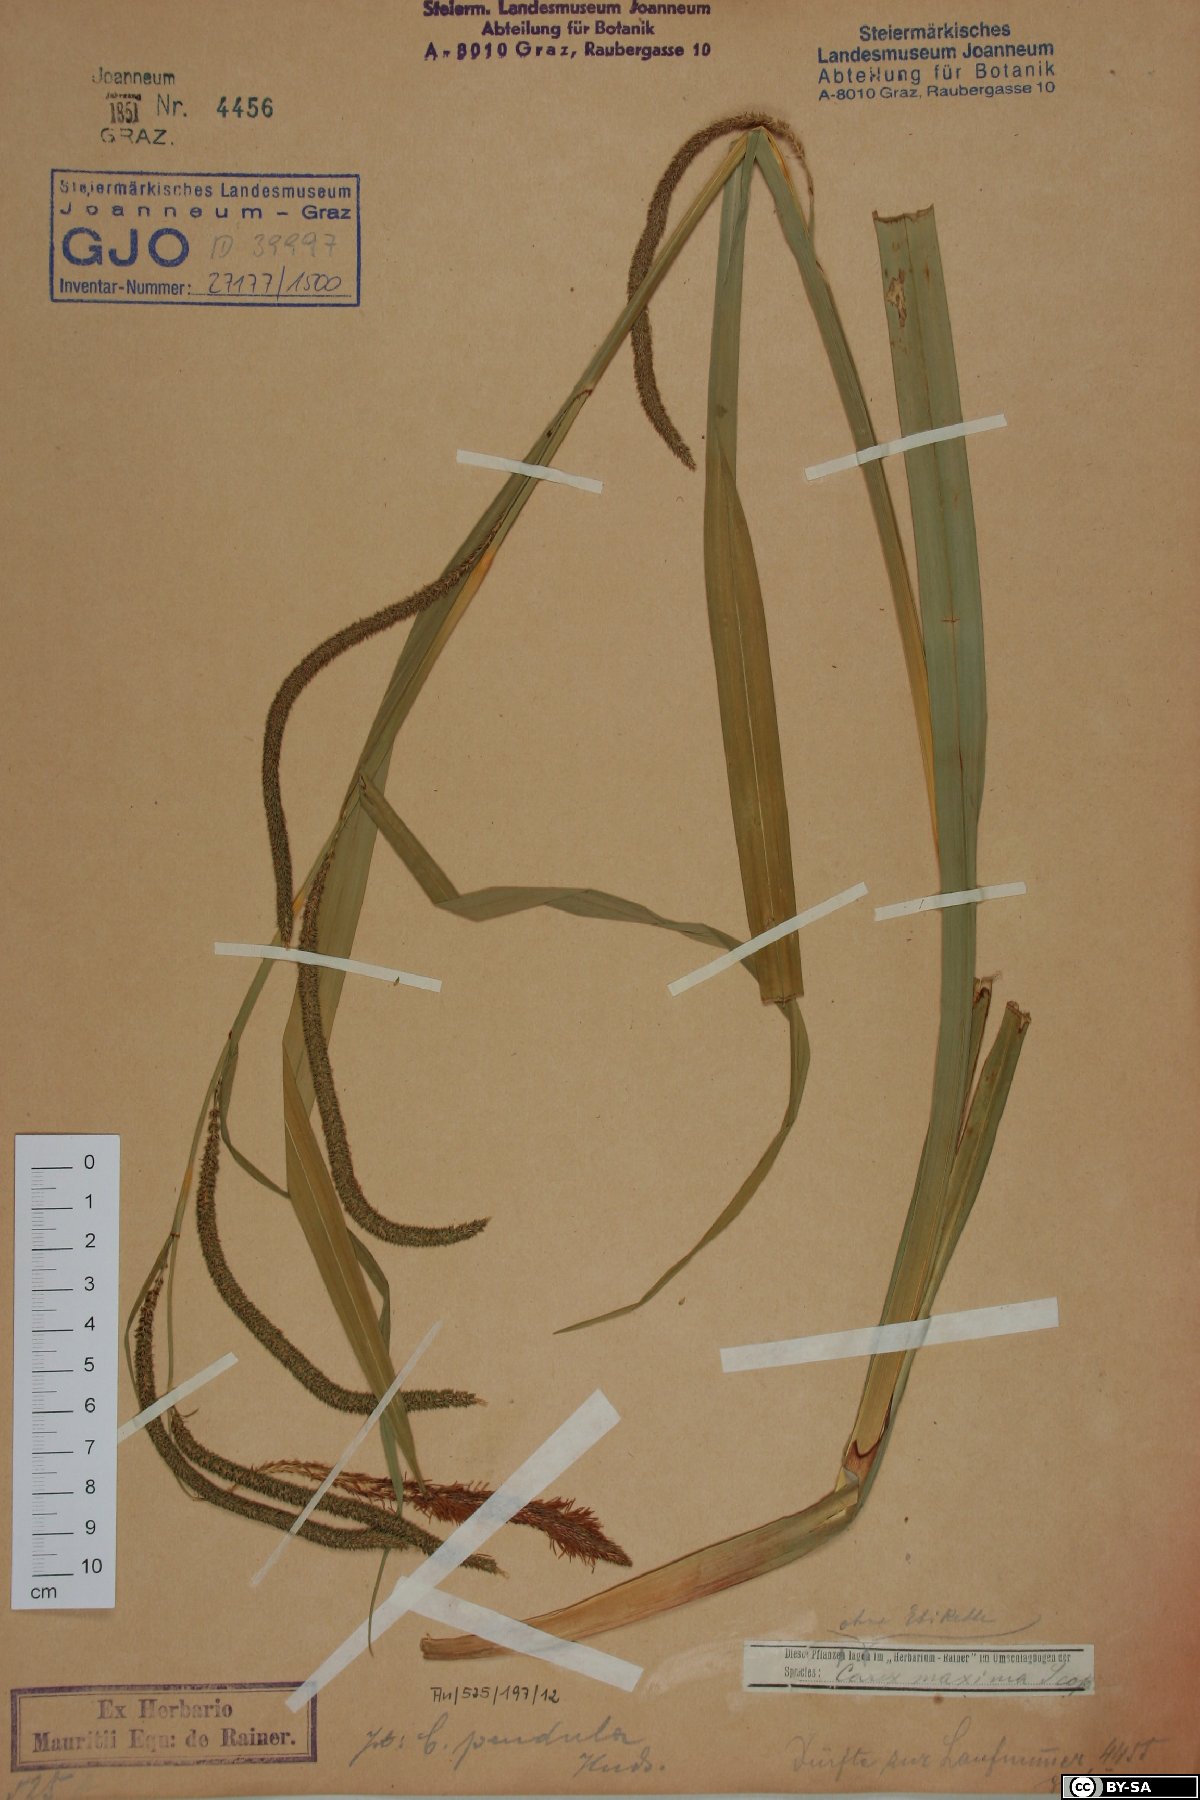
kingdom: Plantae
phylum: Tracheophyta
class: Liliopsida
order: Poales
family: Cyperaceae
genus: Carex
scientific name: Carex pendula
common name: Pendulous sedge
